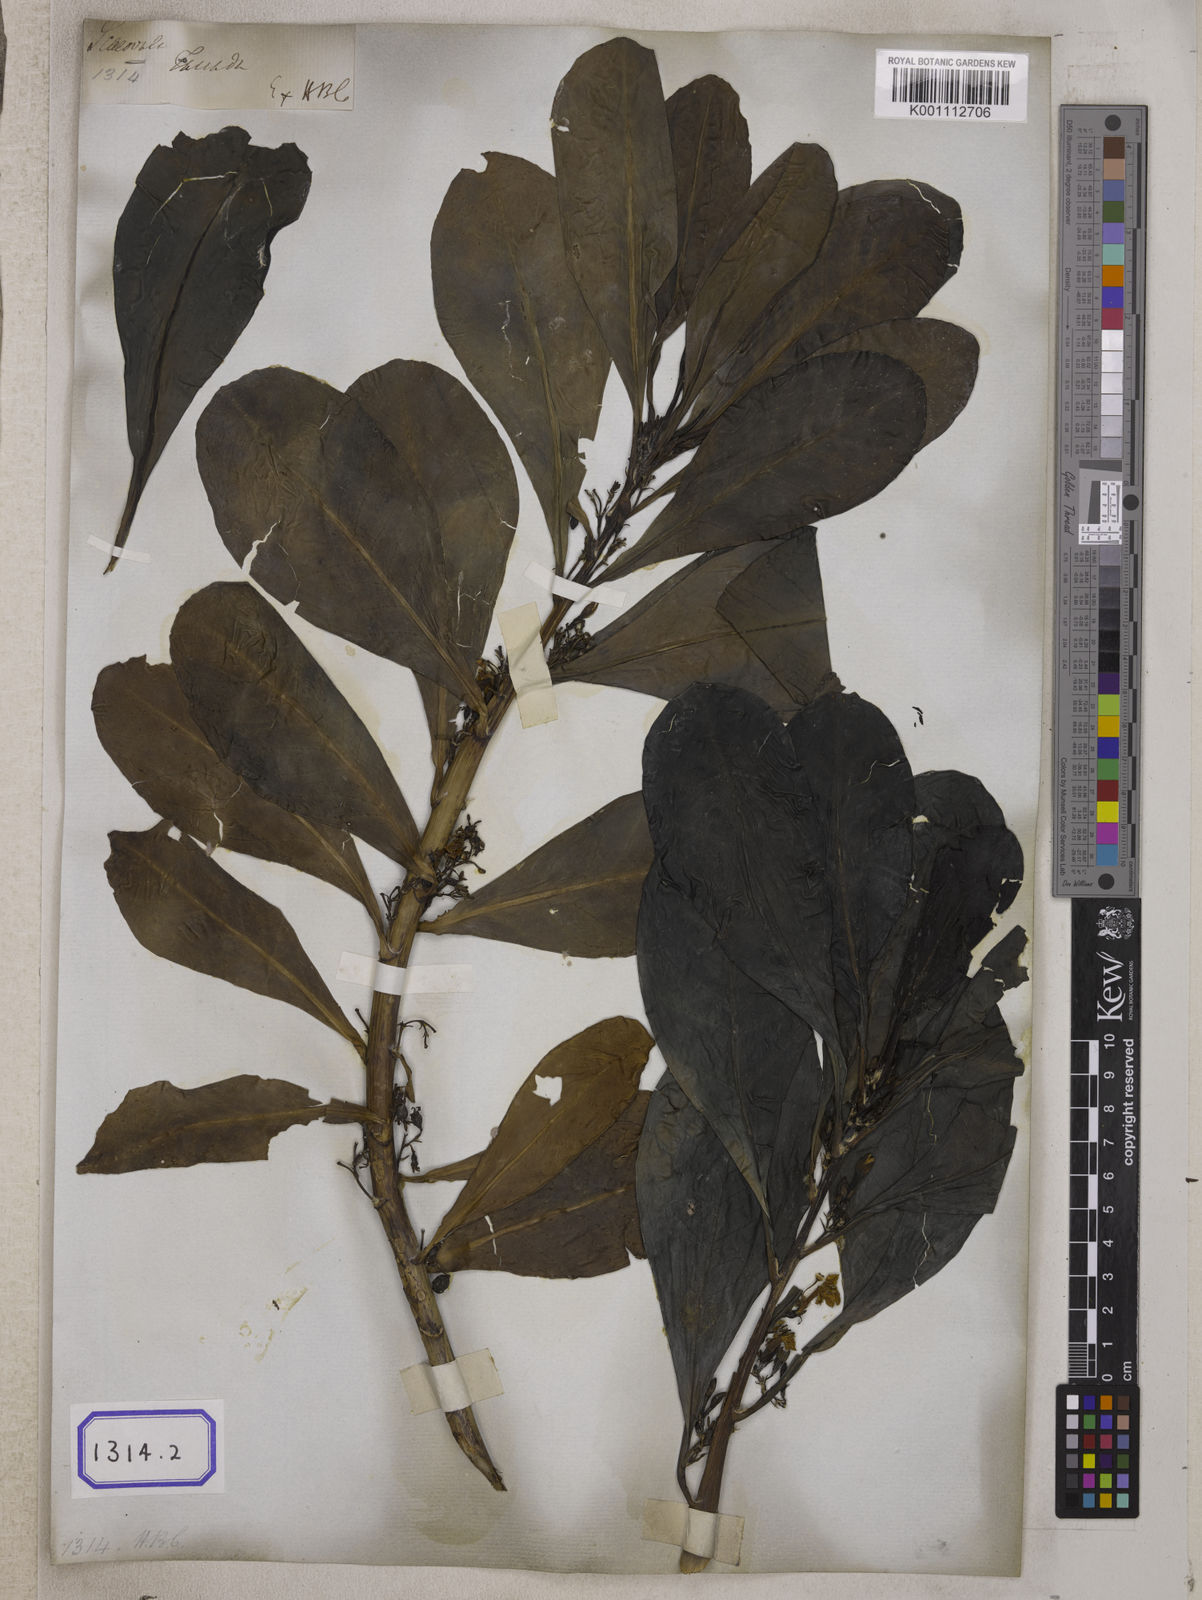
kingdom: Plantae
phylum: Tracheophyta
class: Magnoliopsida
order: Asterales
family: Goodeniaceae
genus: Scaevola
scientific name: Scaevola taccada
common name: Sea lettucetree
